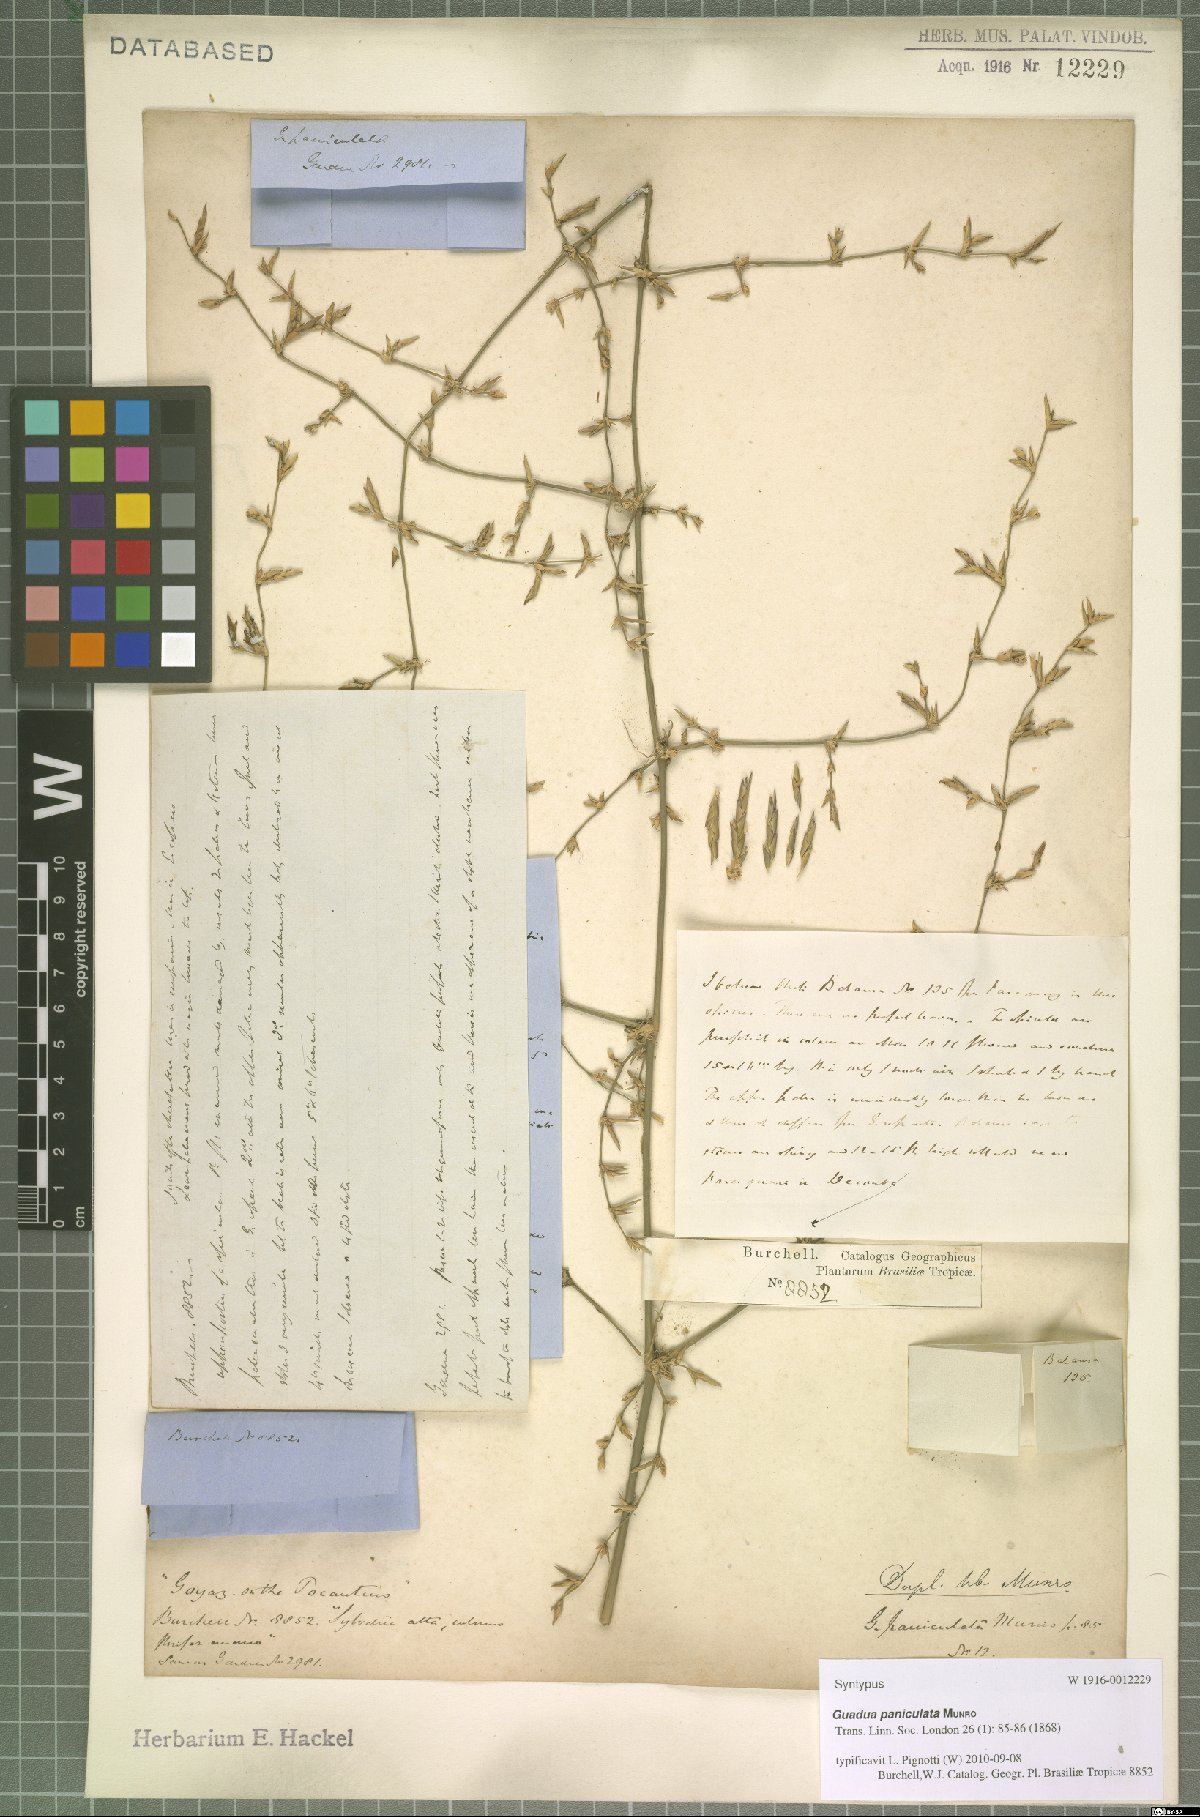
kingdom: Plantae
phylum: Tracheophyta
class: Liliopsida
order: Poales
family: Poaceae
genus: Guadua
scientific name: Guadua paniculata
